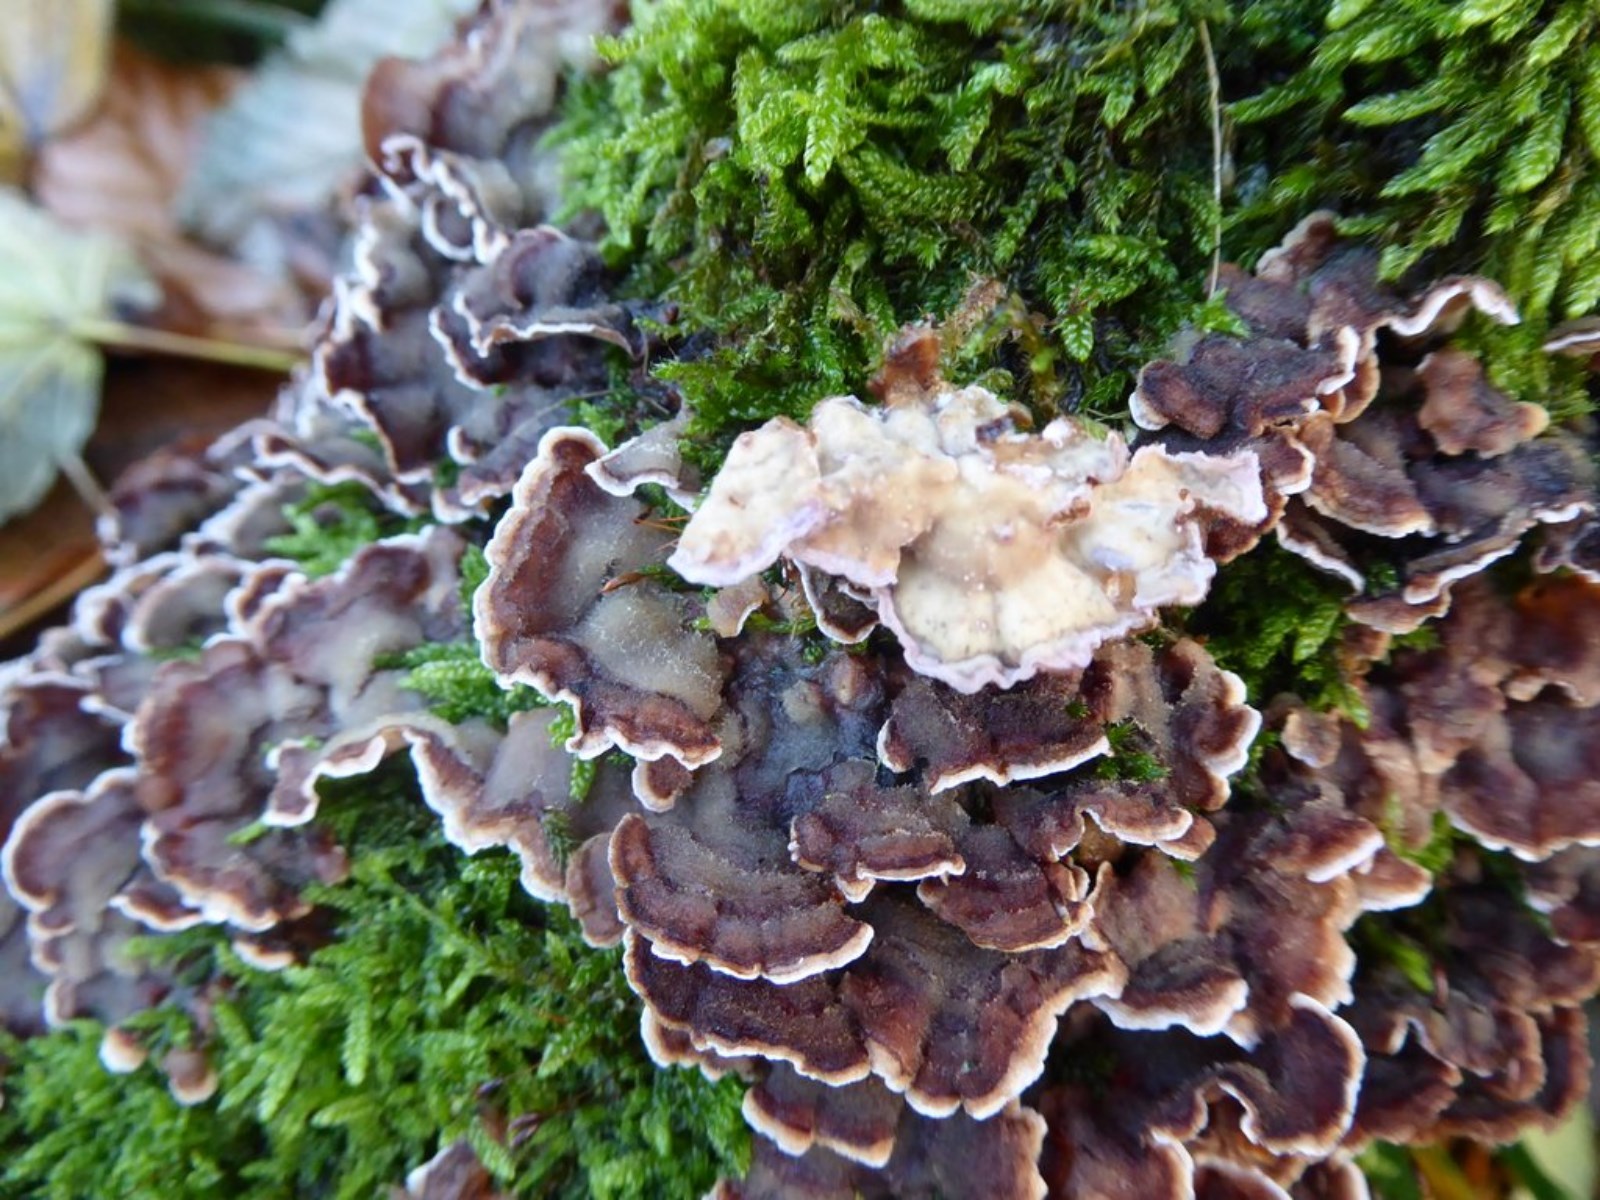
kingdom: Fungi
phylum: Basidiomycota
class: Agaricomycetes
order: Agaricales
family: Cyphellaceae
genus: Chondrostereum
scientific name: Chondrostereum purpureum
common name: purpurlædersvamp
